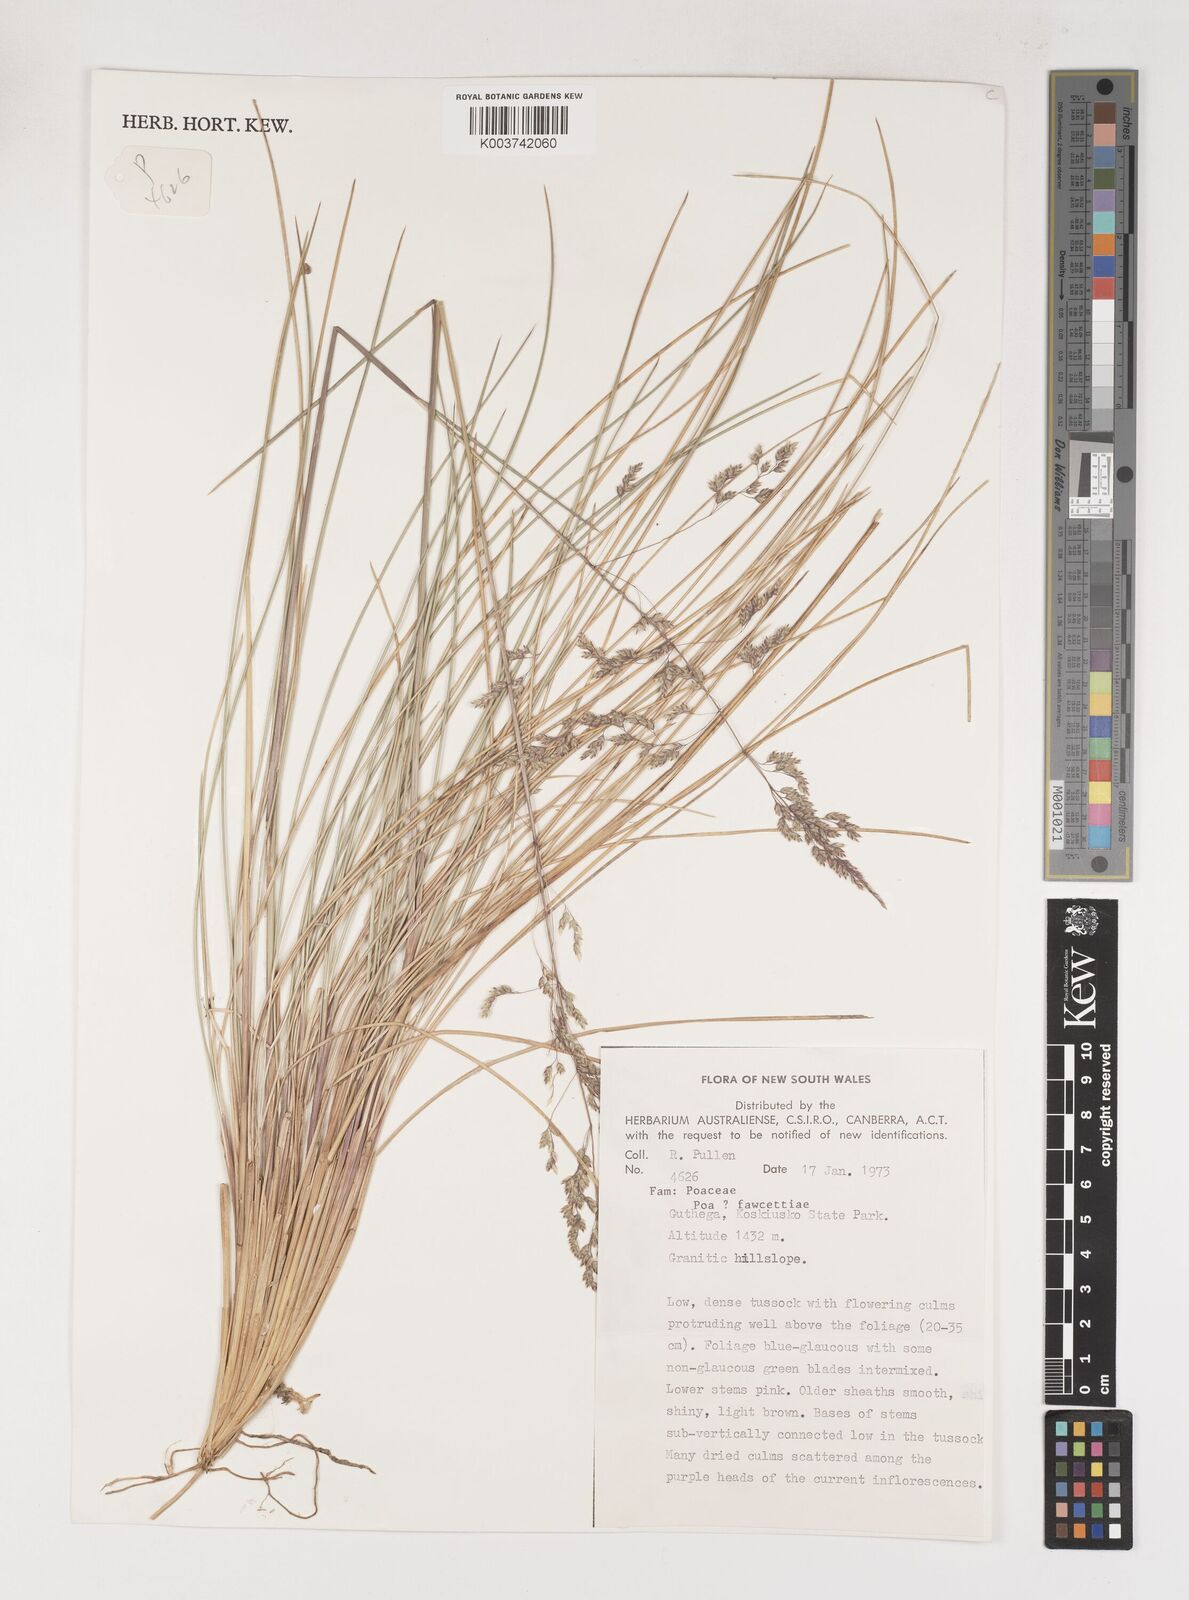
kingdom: Plantae
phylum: Tracheophyta
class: Liliopsida
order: Poales
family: Poaceae
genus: Poa
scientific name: Poa fawcettiae
